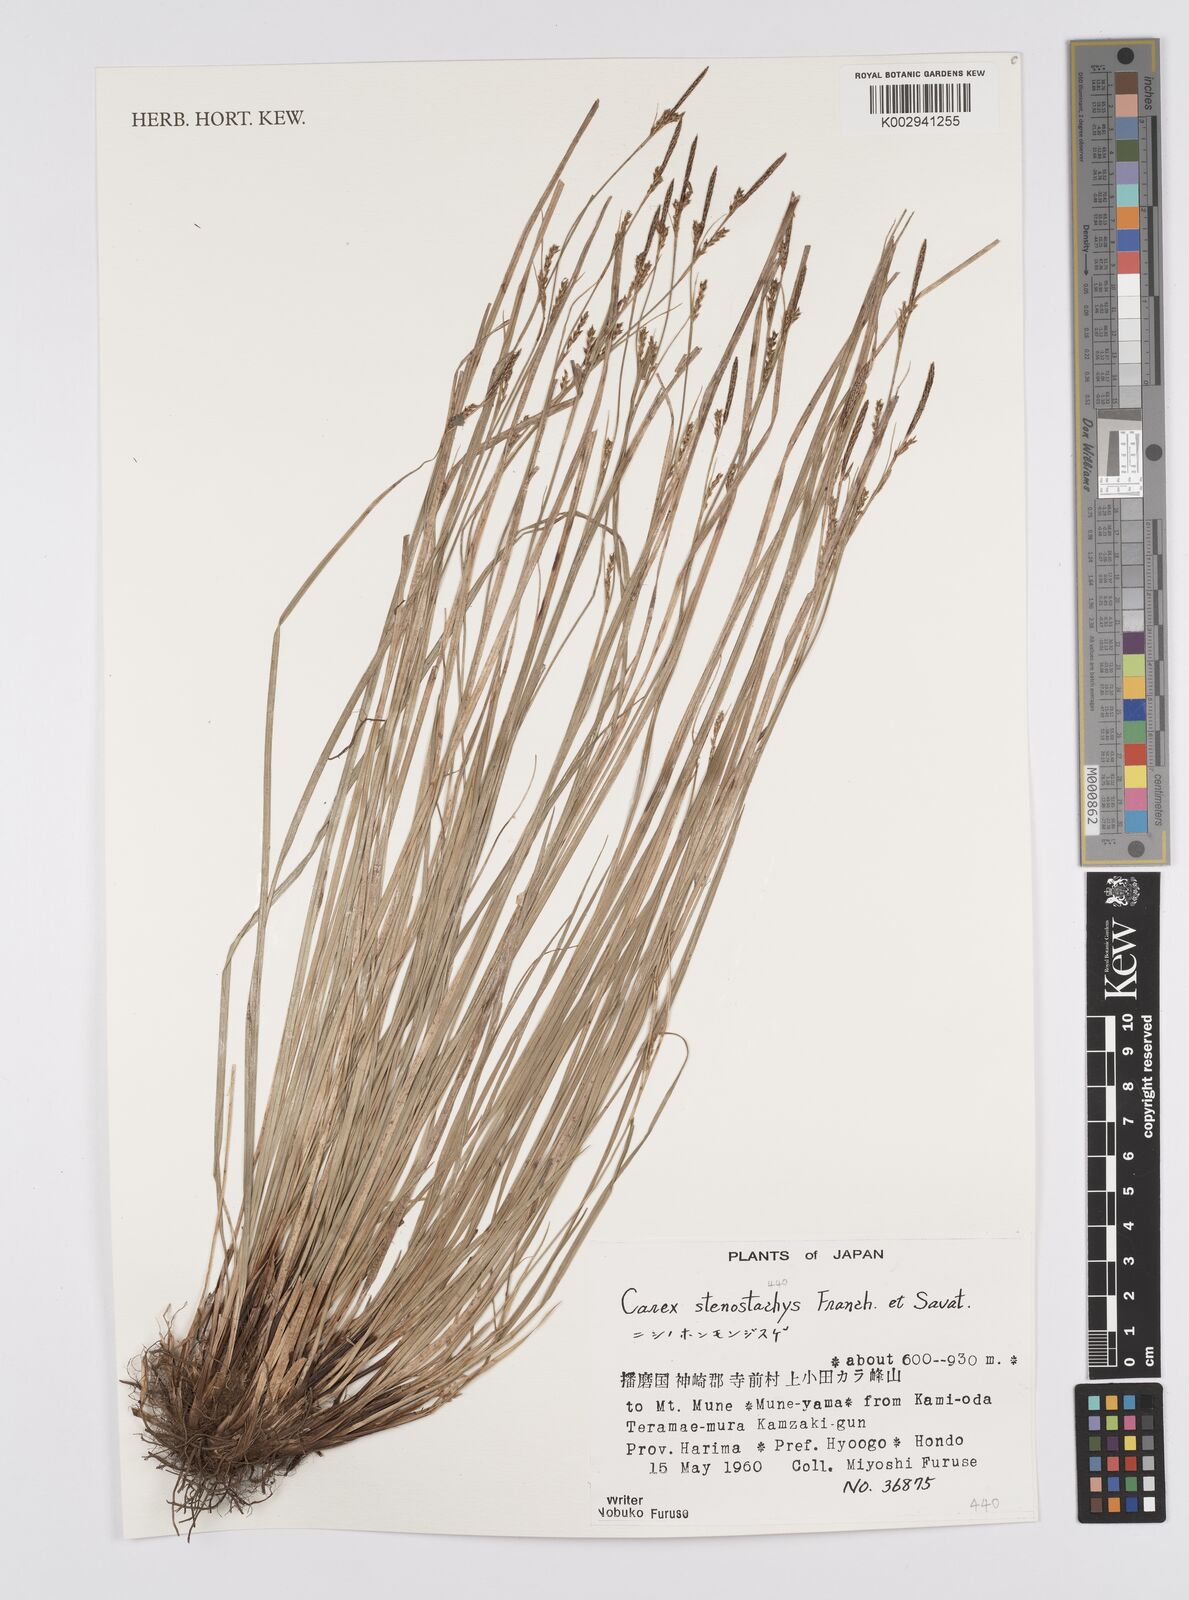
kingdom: Plantae
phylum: Tracheophyta
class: Liliopsida
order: Poales
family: Cyperaceae
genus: Carex
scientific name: Carex pisiformis
